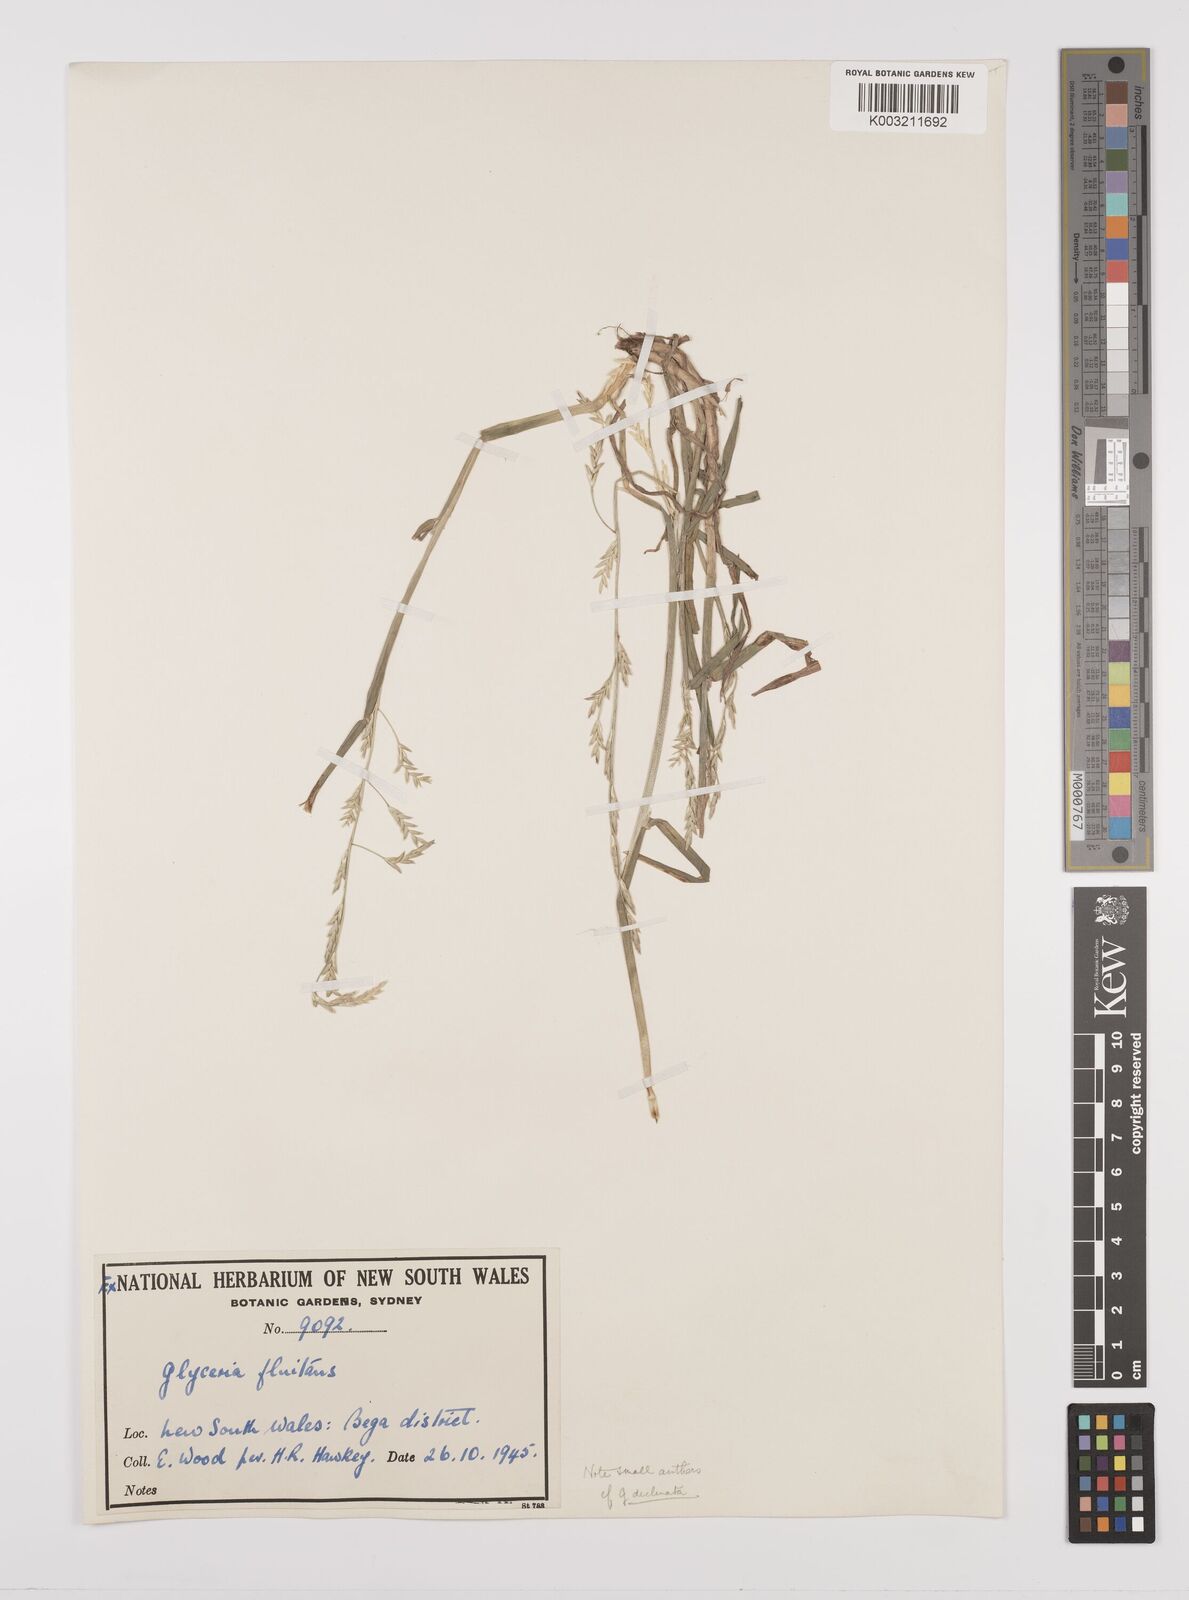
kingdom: Plantae
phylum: Tracheophyta
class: Liliopsida
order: Poales
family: Poaceae
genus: Glyceria
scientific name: Glyceria
